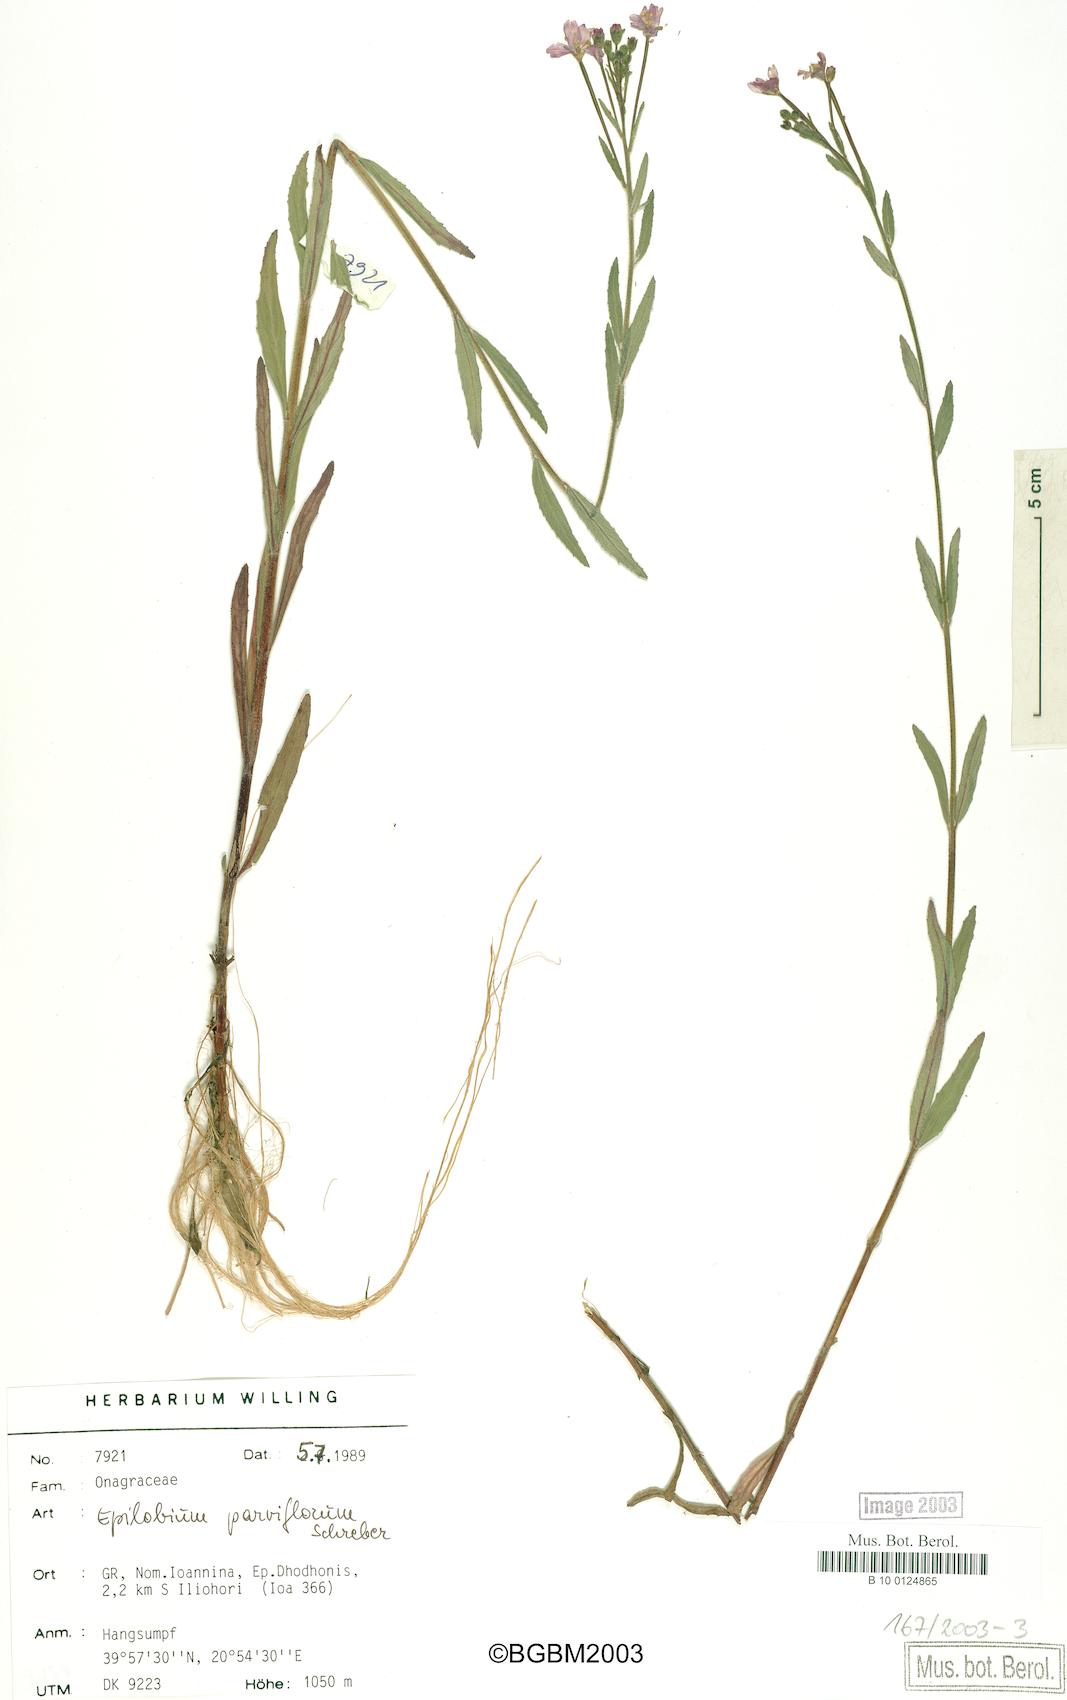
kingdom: Plantae
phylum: Tracheophyta
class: Magnoliopsida
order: Myrtales
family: Onagraceae
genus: Epilobium
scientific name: Epilobium parviflorum
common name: Hoary willowherb
